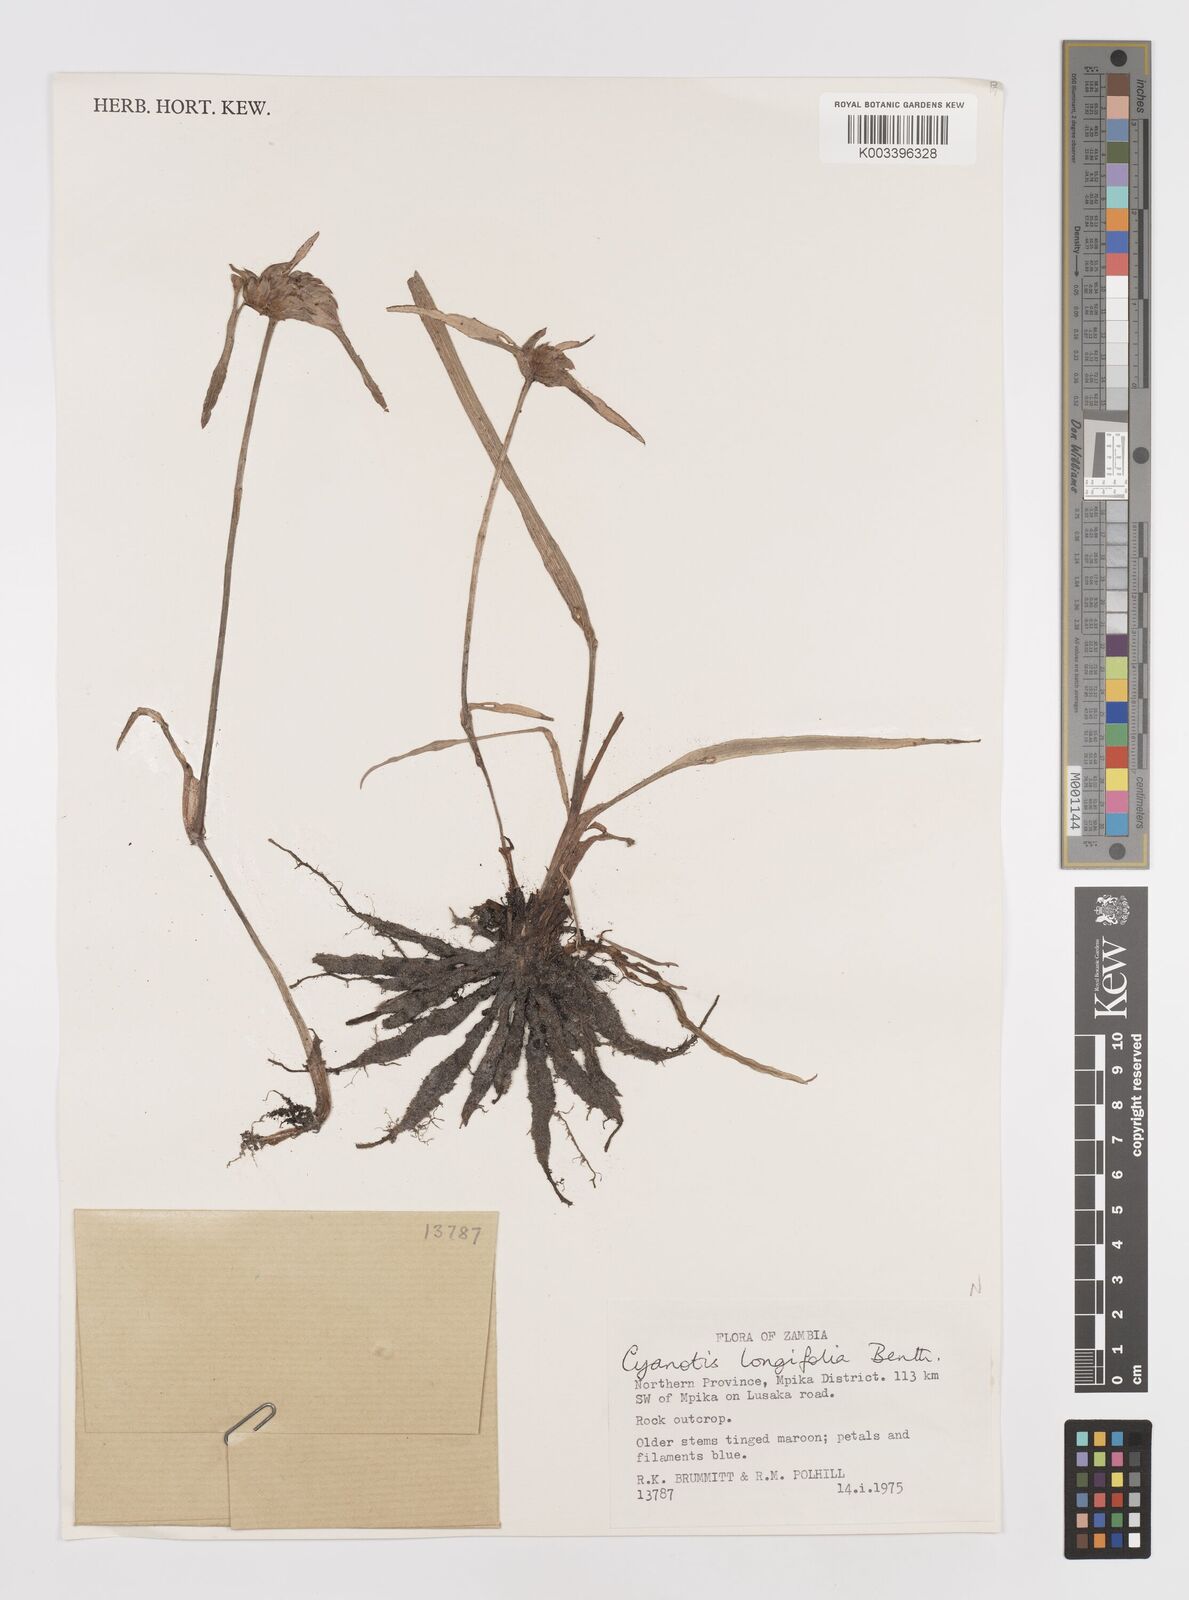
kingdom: Plantae
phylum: Tracheophyta
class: Liliopsida
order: Commelinales
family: Commelinaceae
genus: Cyanotis
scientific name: Cyanotis longifolia
